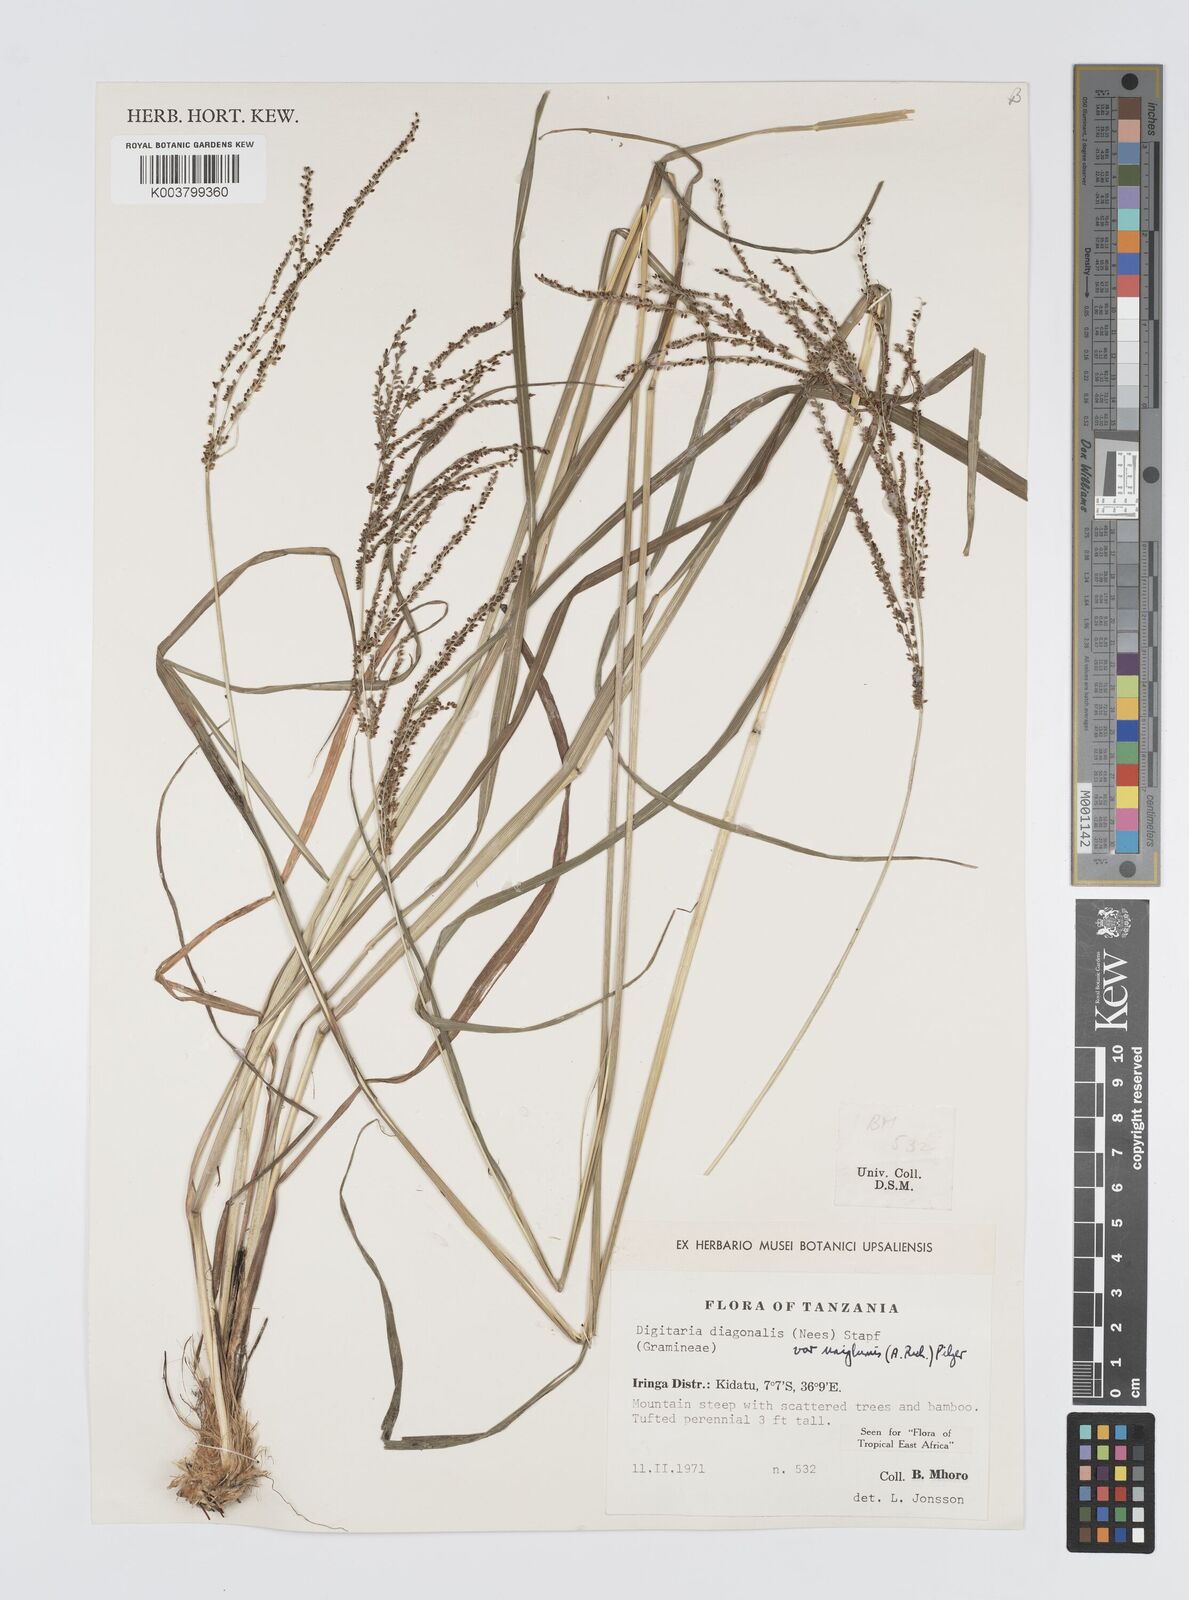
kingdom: Plantae
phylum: Tracheophyta
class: Liliopsida
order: Poales
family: Poaceae
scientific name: Poaceae
